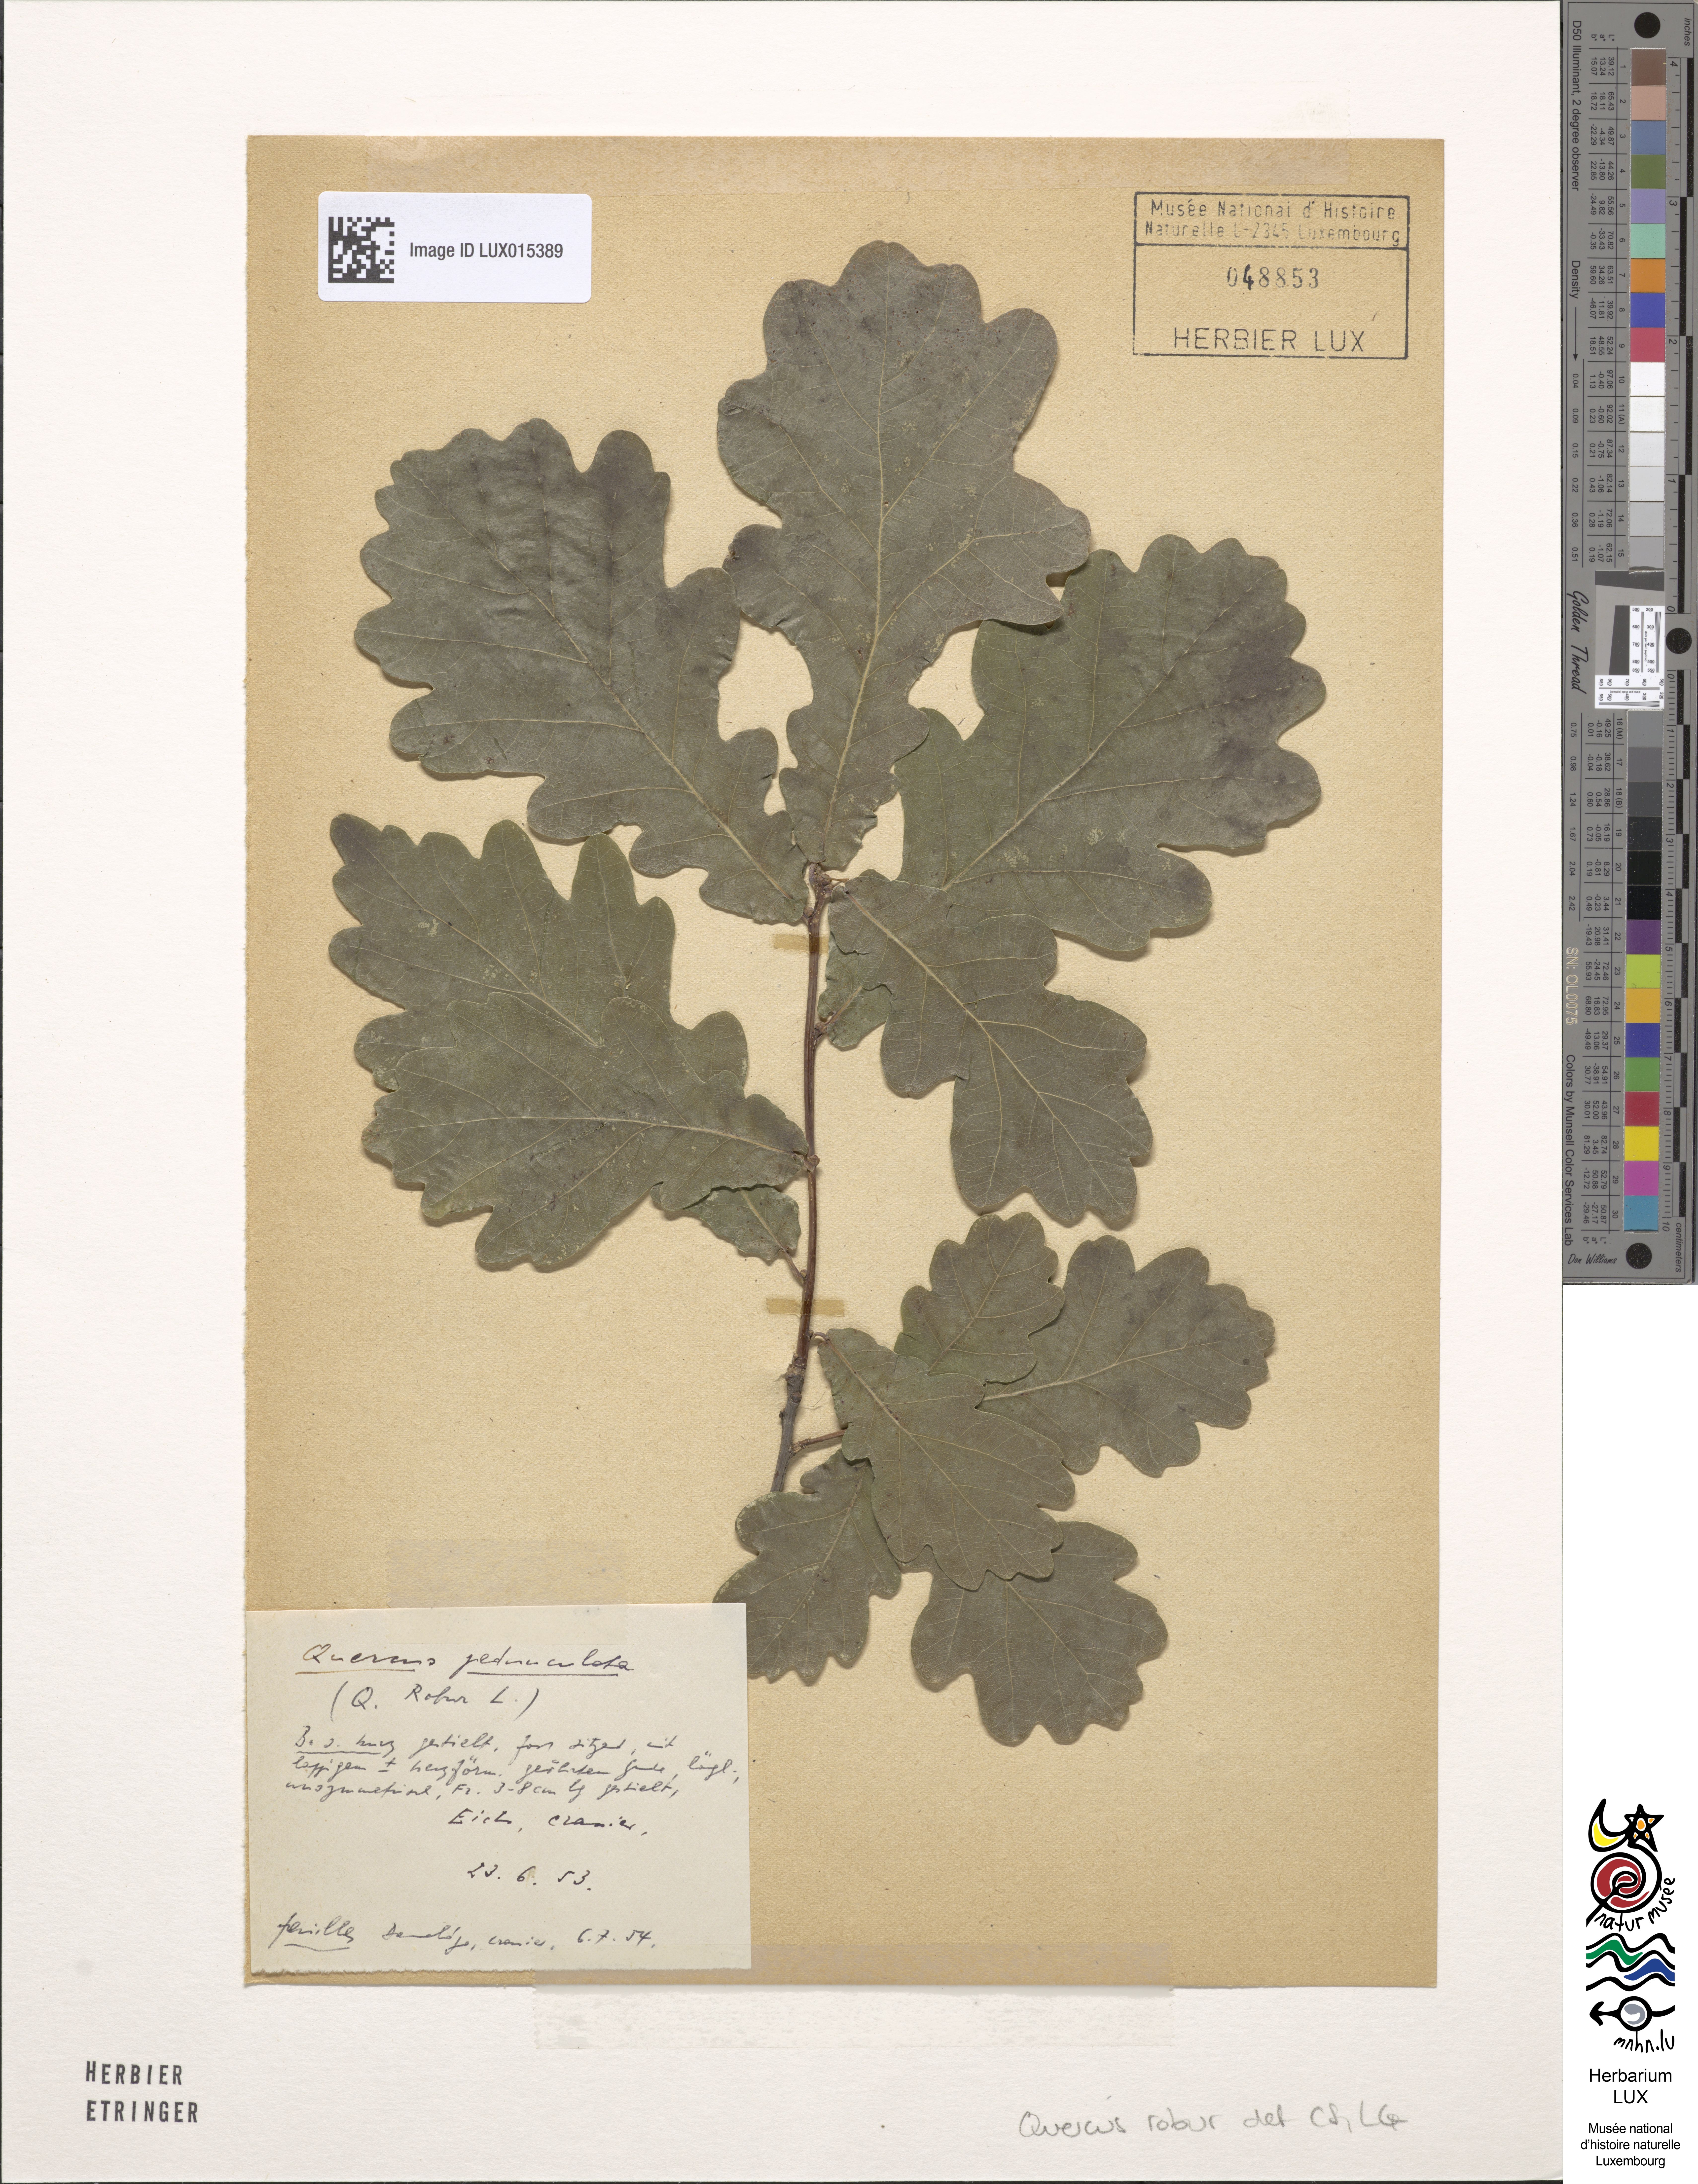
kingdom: Plantae
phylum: Tracheophyta
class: Magnoliopsida
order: Fagales
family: Fagaceae
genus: Quercus
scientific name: Quercus robur
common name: Pedunculate oak
